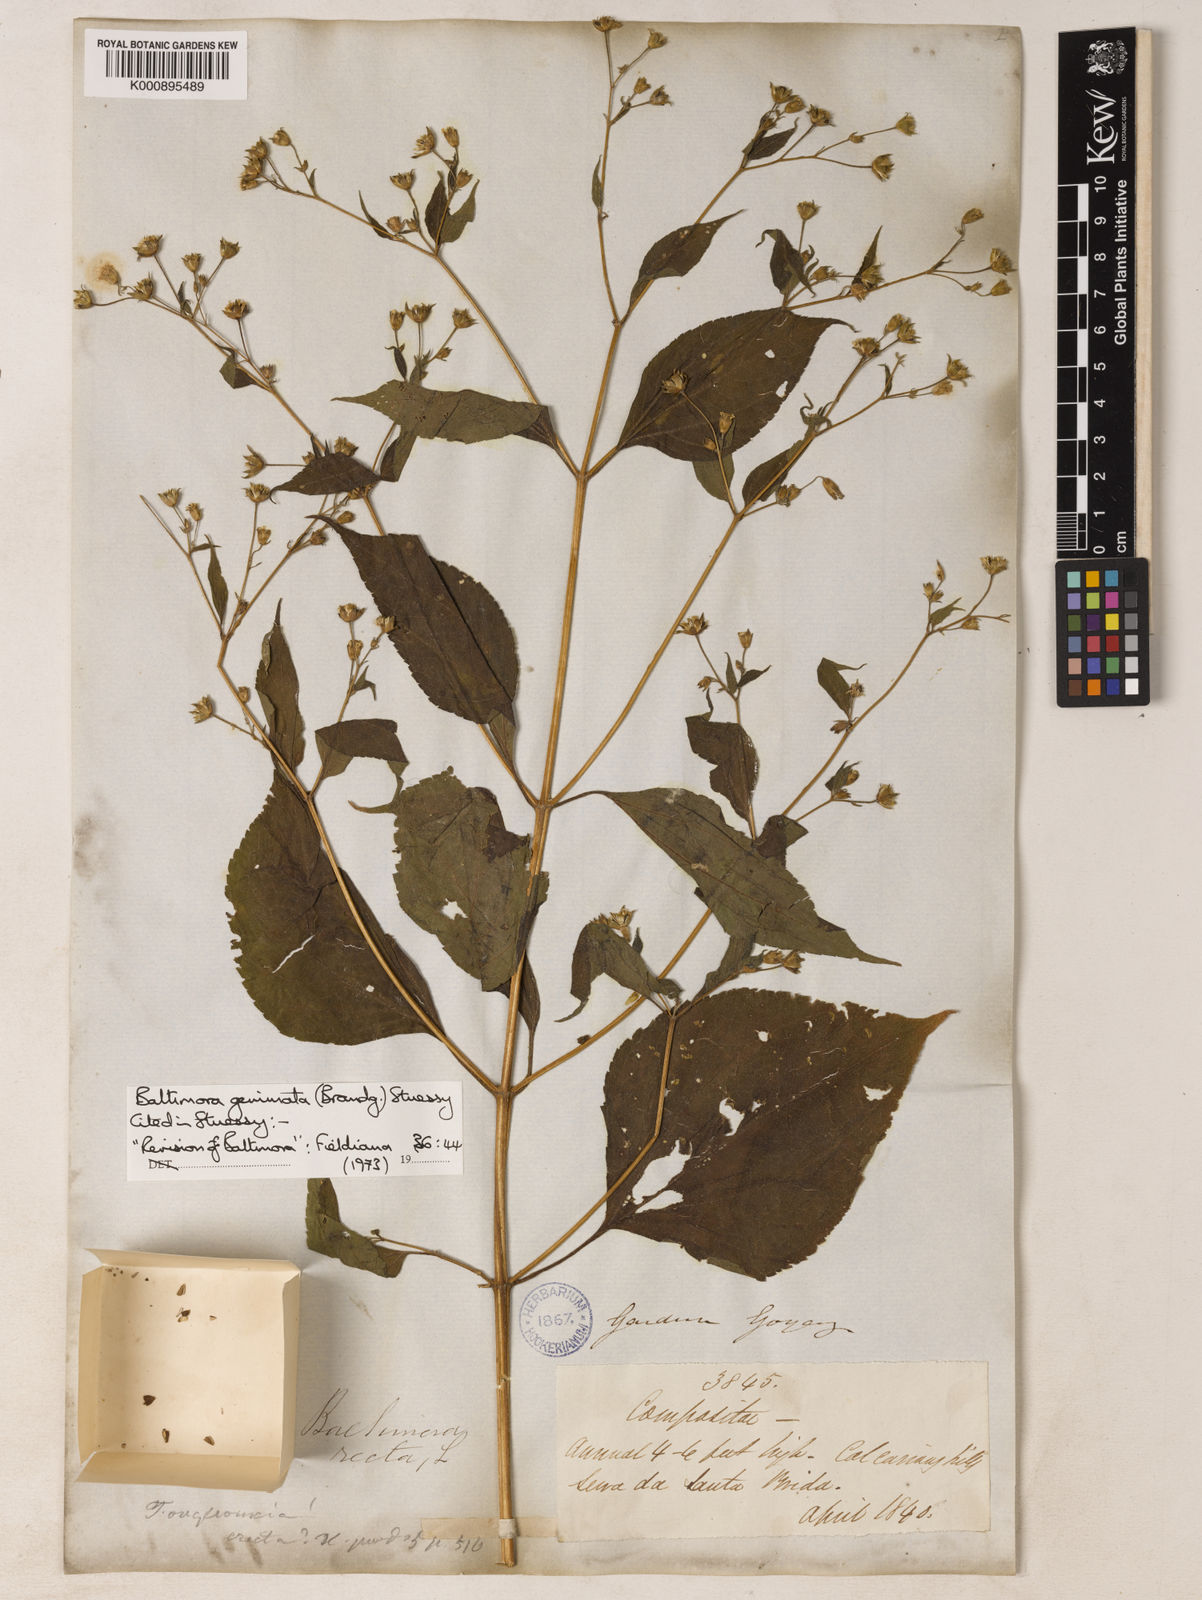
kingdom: Plantae
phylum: Tracheophyta
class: Magnoliopsida
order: Asterales
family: Asteraceae
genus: Baltimora
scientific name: Baltimora geminata
